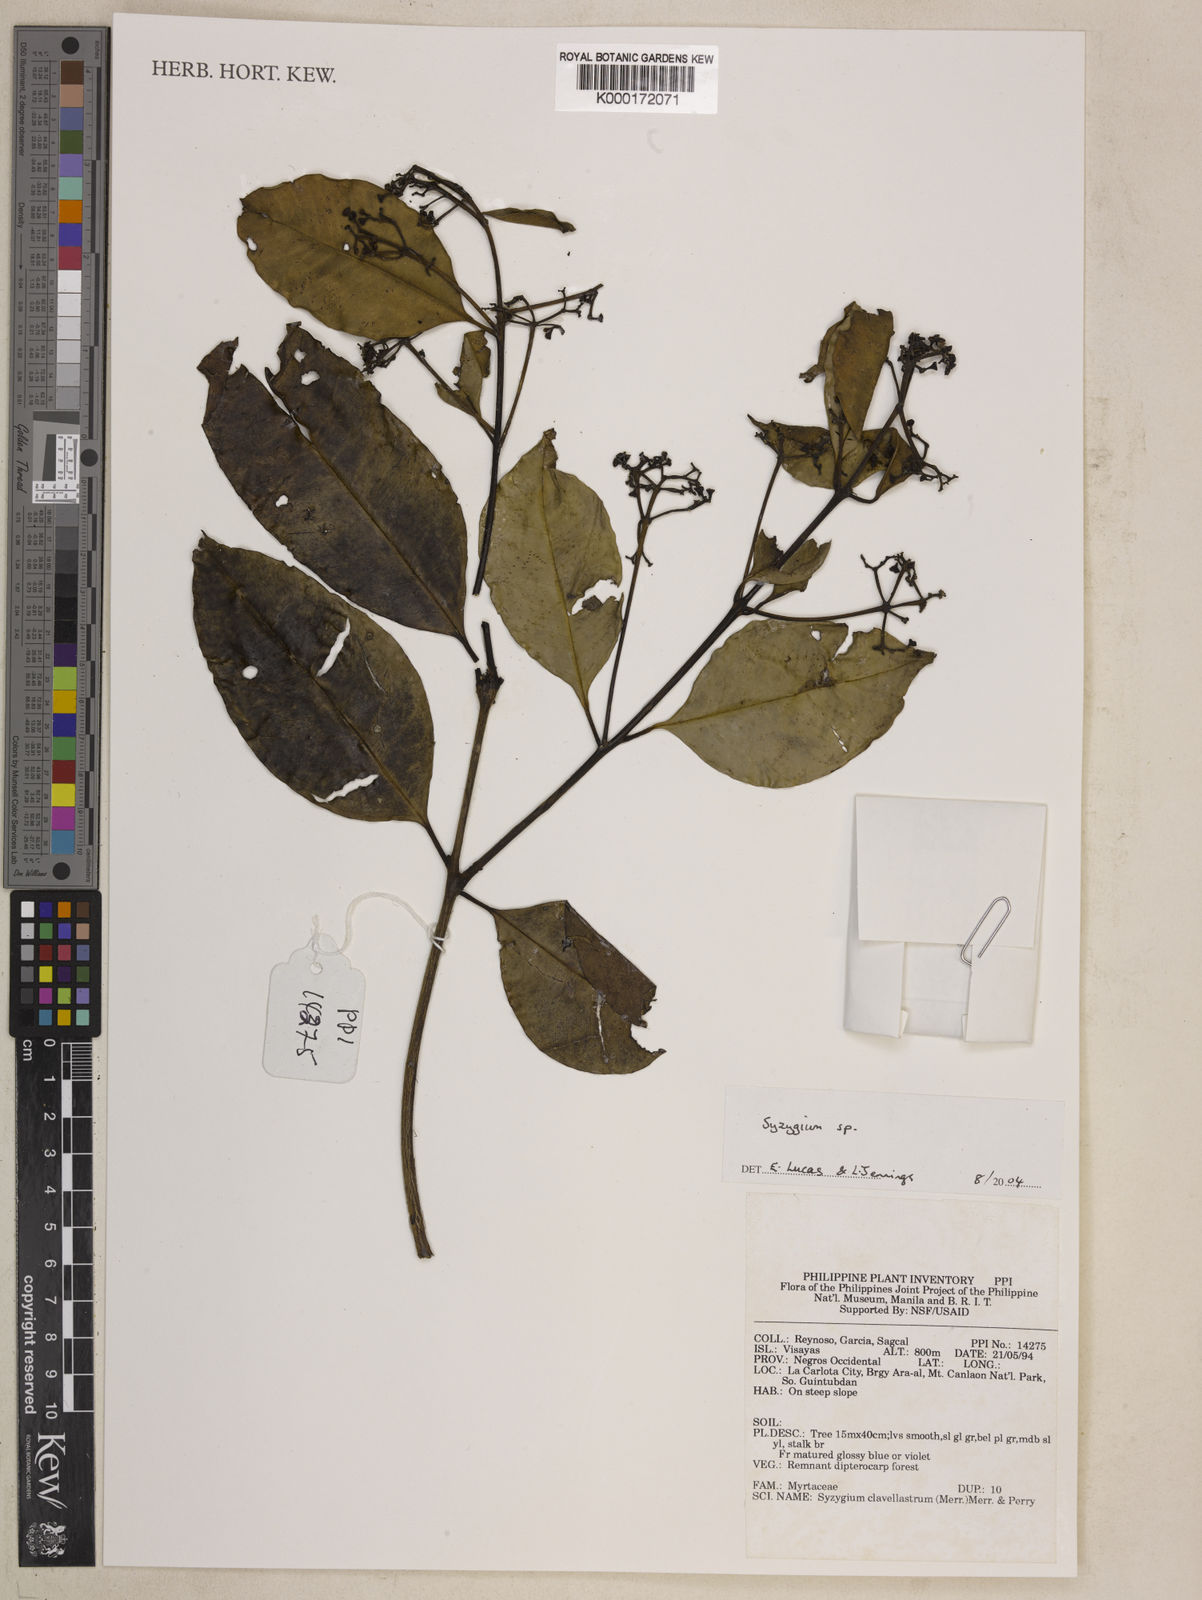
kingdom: Plantae
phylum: Tracheophyta
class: Magnoliopsida
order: Myrtales
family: Myrtaceae
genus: Syzygium
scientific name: Syzygium
